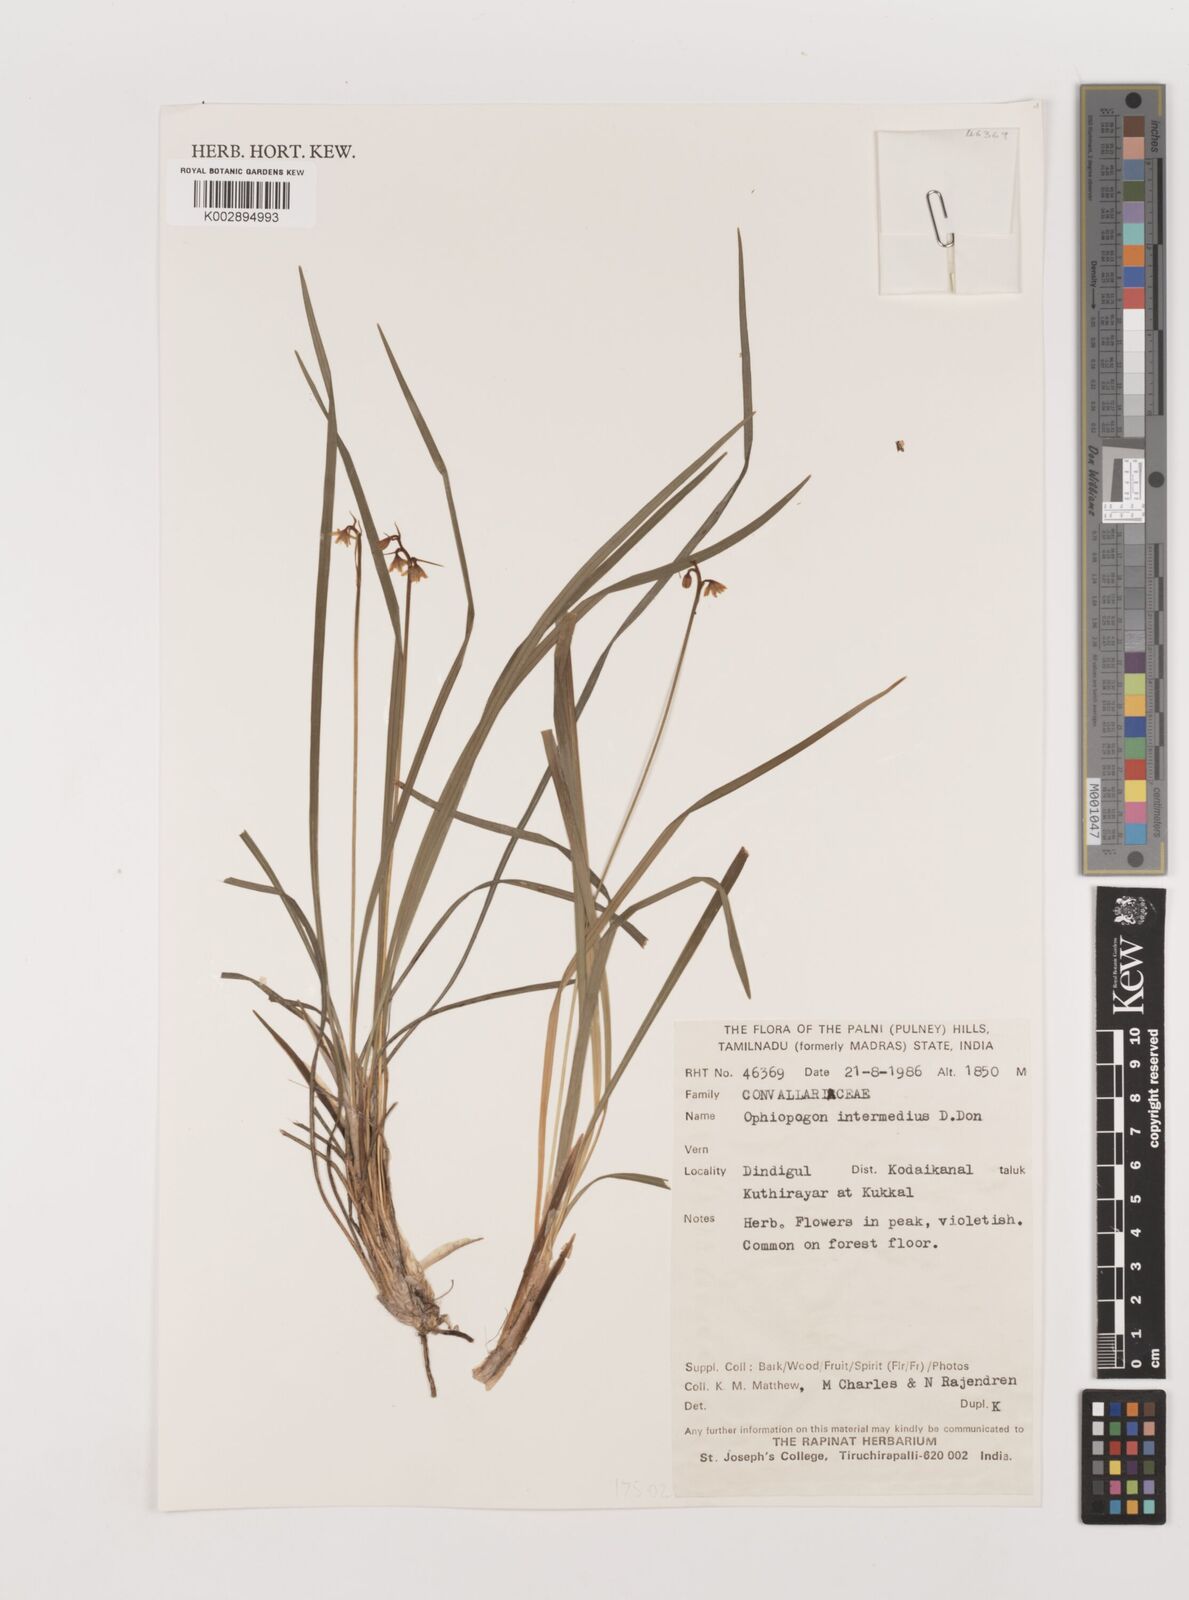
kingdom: Plantae
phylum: Tracheophyta
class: Liliopsida
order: Asparagales
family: Asparagaceae
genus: Ophiopogon
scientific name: Ophiopogon intermedius
